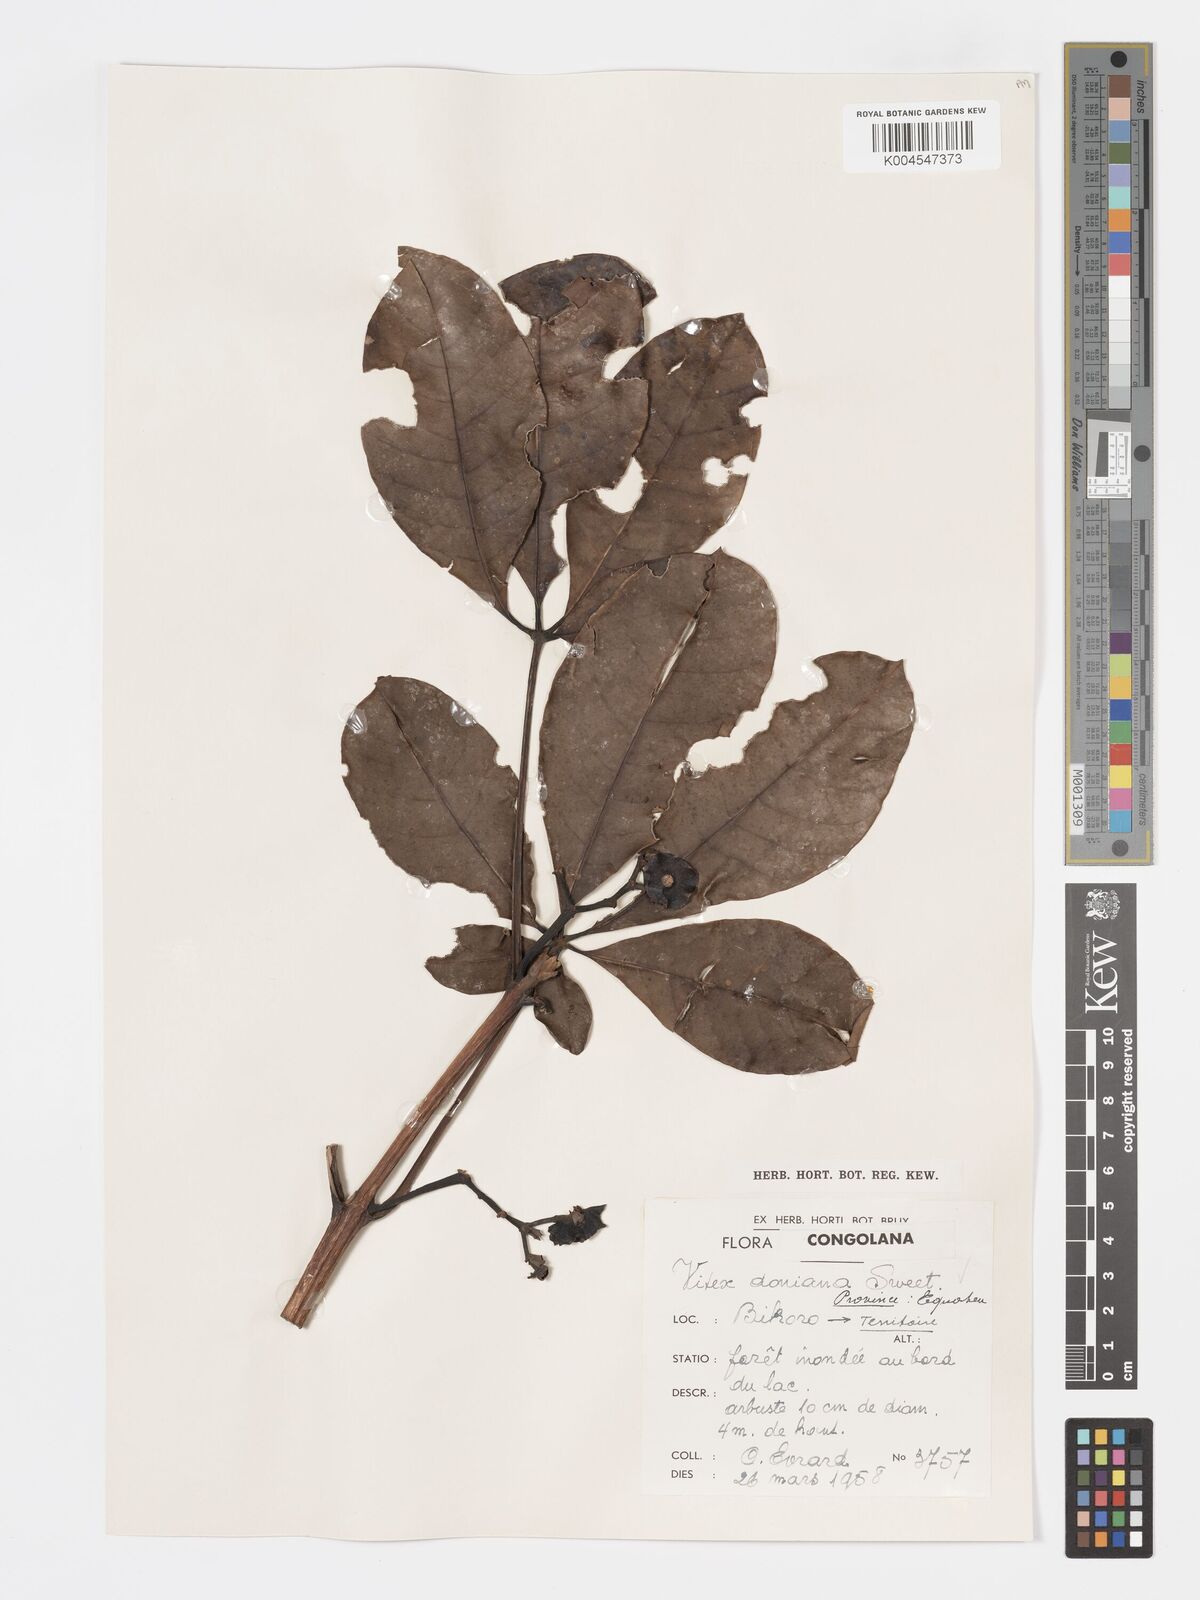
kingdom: Plantae
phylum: Tracheophyta
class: Magnoliopsida
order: Lamiales
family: Lamiaceae
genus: Vitex
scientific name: Vitex doniana
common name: Black plum
